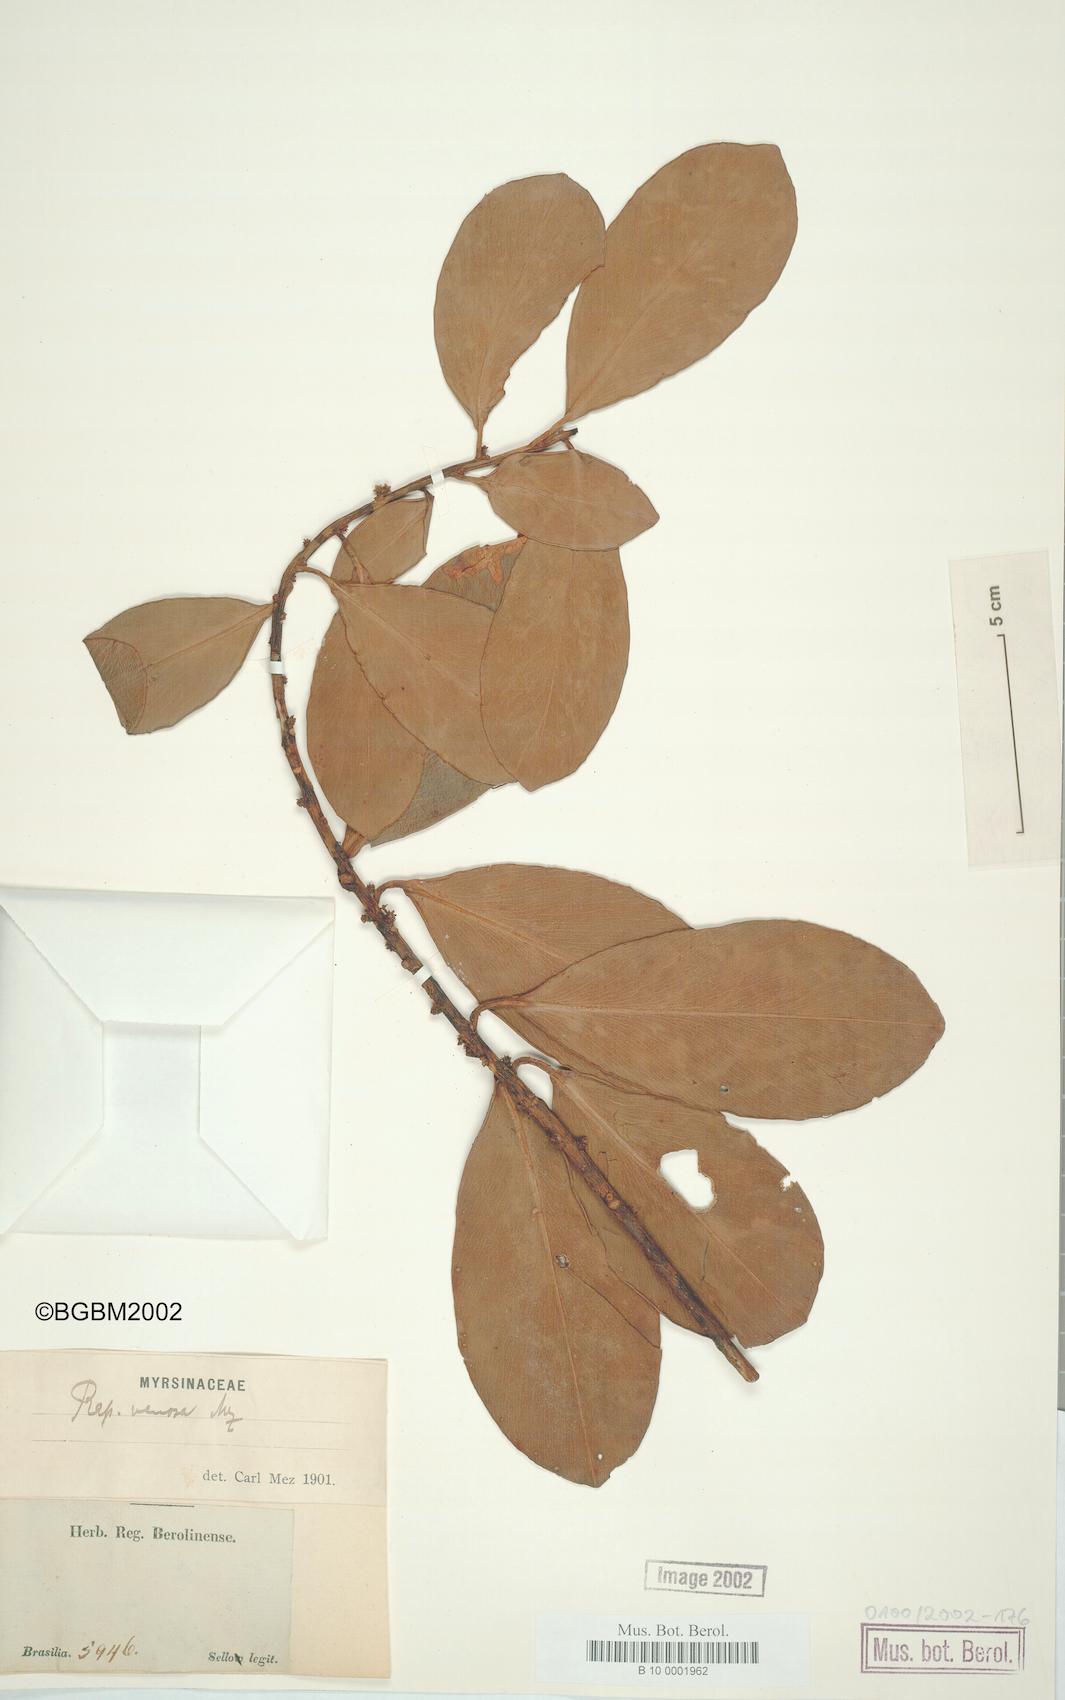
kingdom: Plantae
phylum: Tracheophyta
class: Magnoliopsida
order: Ericales
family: Primulaceae
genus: Myrsine
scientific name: Myrsine
